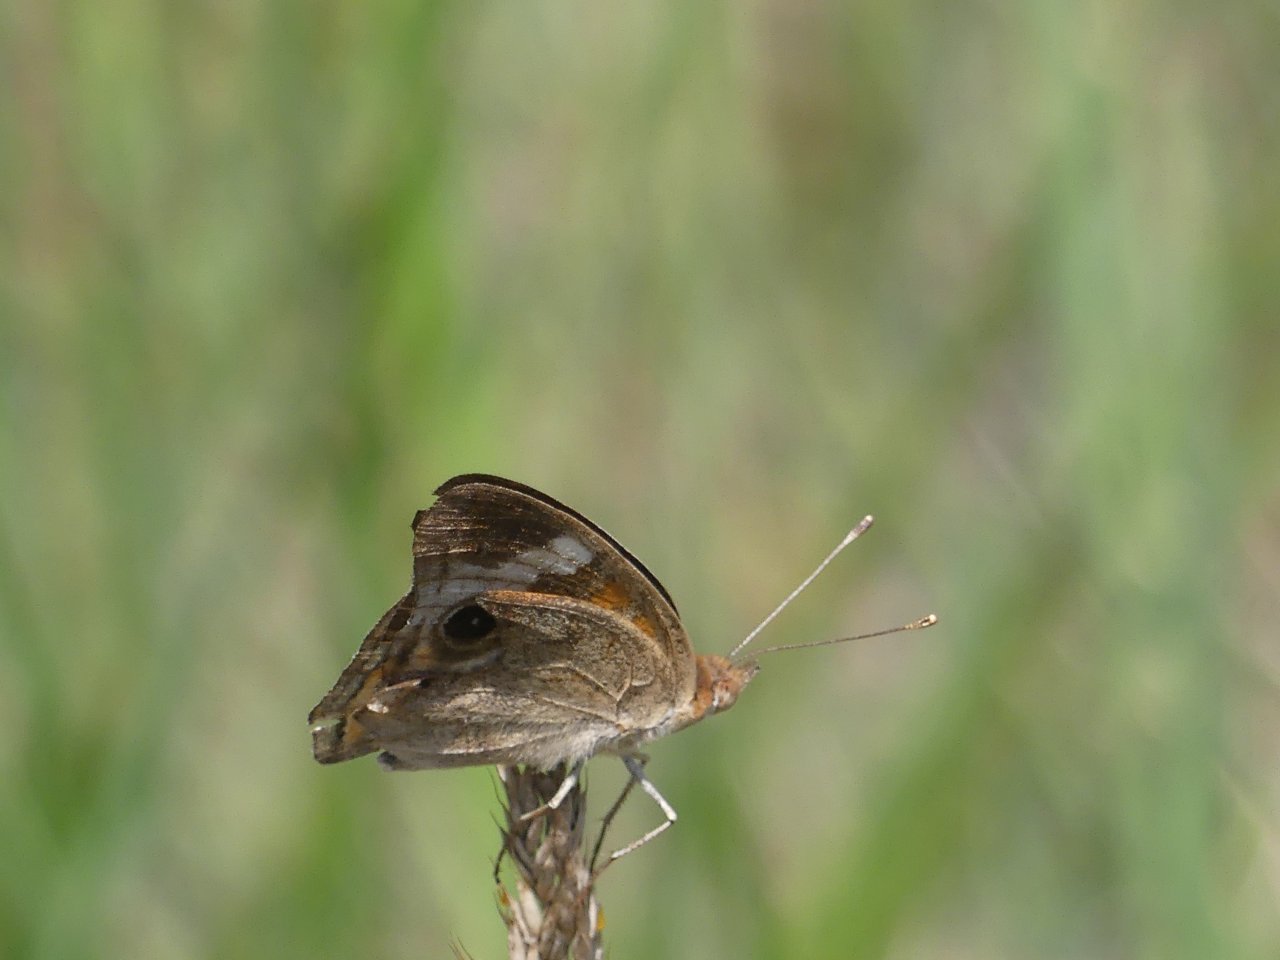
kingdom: Animalia
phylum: Arthropoda
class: Insecta
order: Lepidoptera
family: Nymphalidae
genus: Junonia
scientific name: Junonia coenia
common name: Common Buckeye
